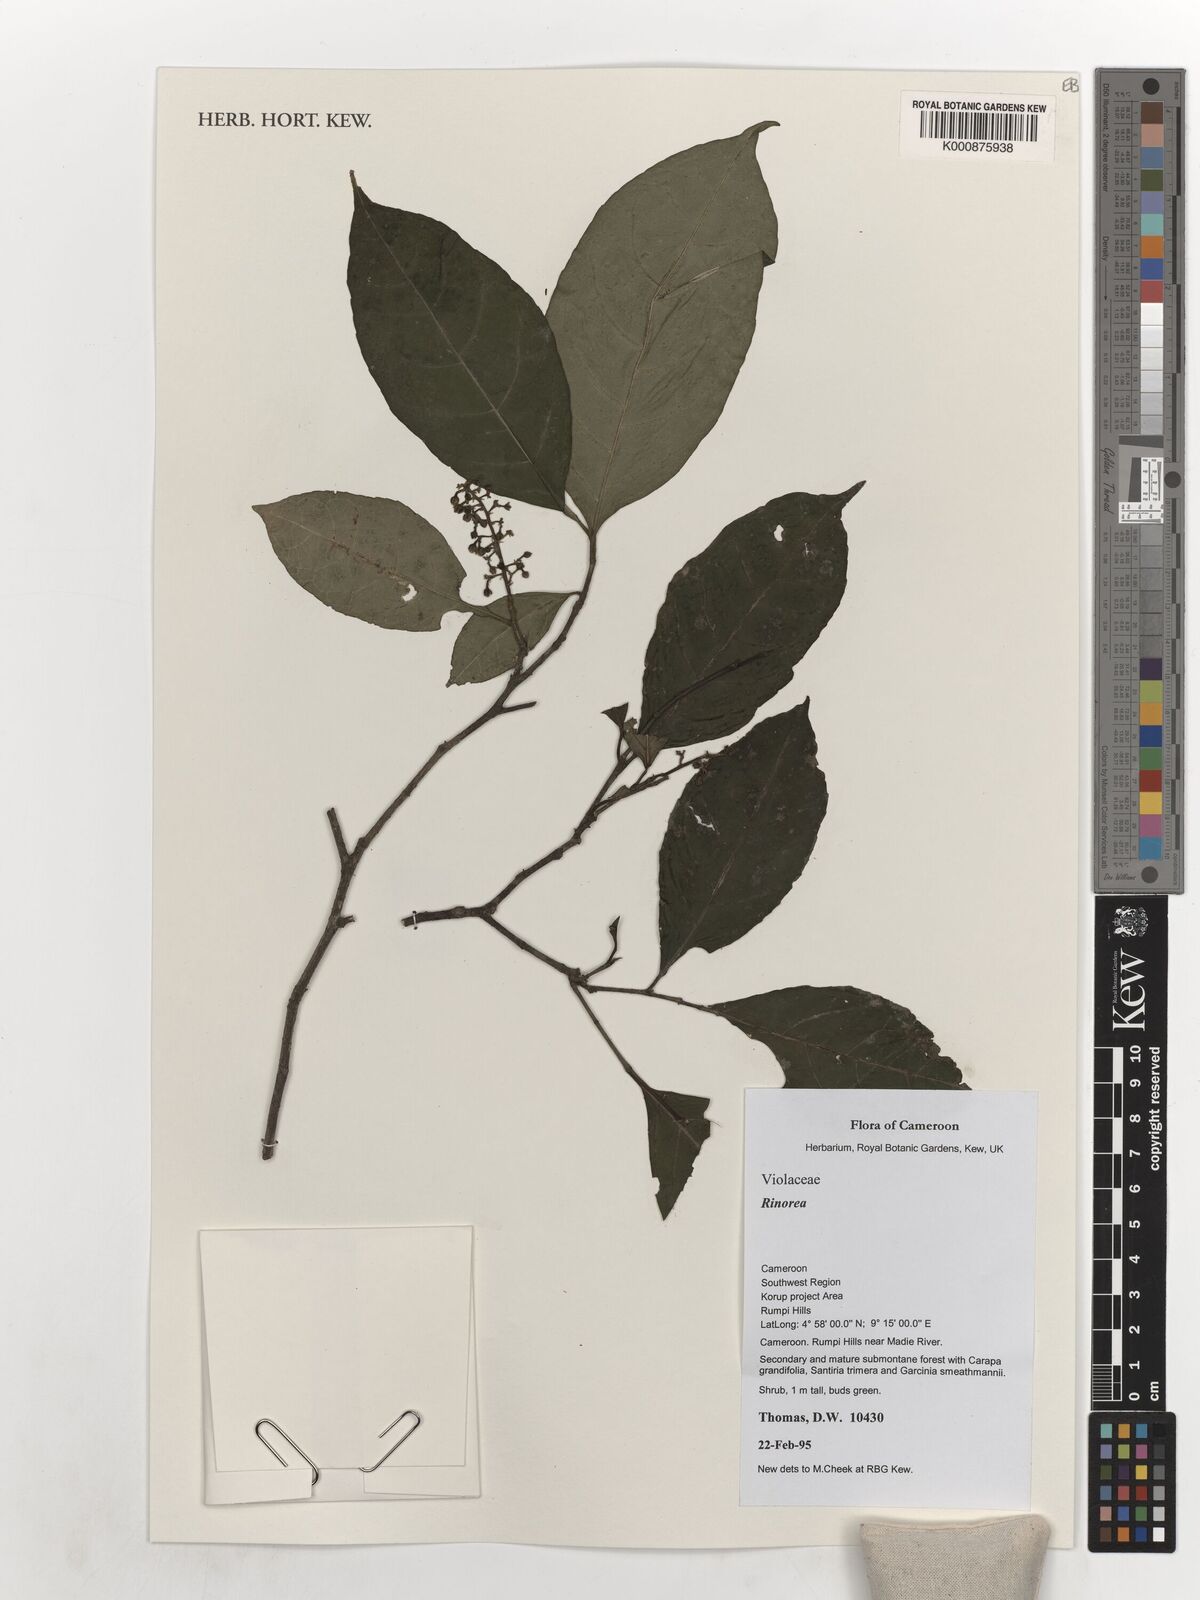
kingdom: Plantae
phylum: Tracheophyta
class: Magnoliopsida
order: Malpighiales
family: Violaceae
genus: Rinorea
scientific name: Rinorea
